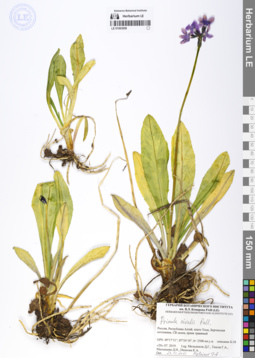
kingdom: Plantae
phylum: Tracheophyta
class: Magnoliopsida
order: Ericales
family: Primulaceae
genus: Primula
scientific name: Primula nivalis
